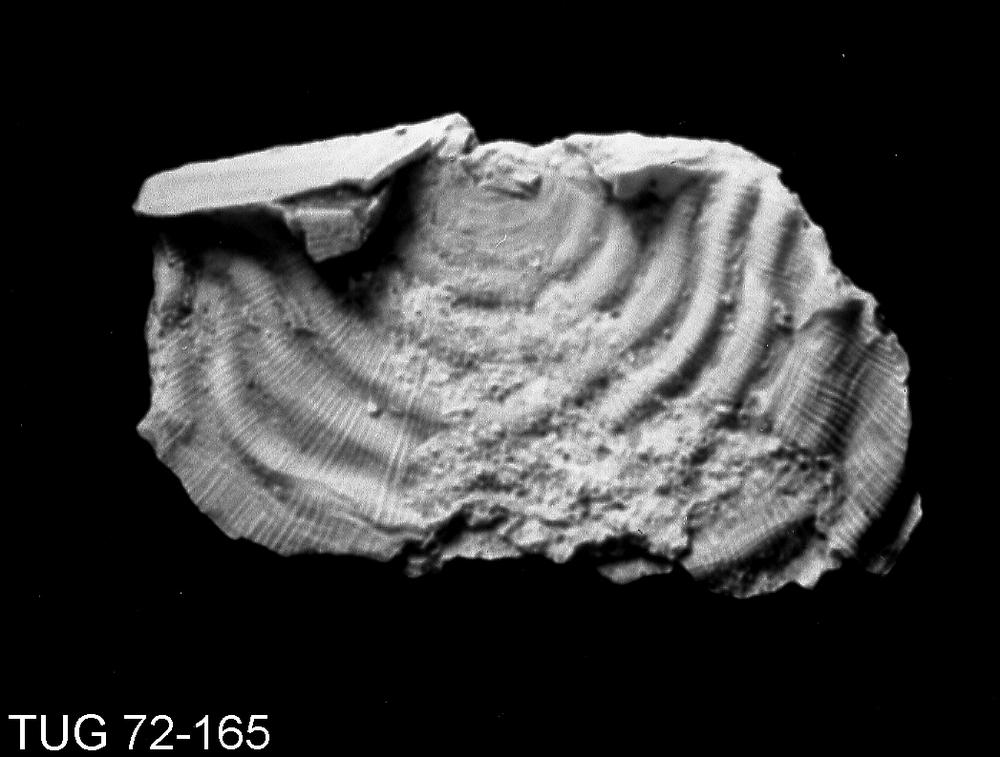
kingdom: Animalia
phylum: Brachiopoda
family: Strophomenidae
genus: Leptaena
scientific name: Leptaena alliku
